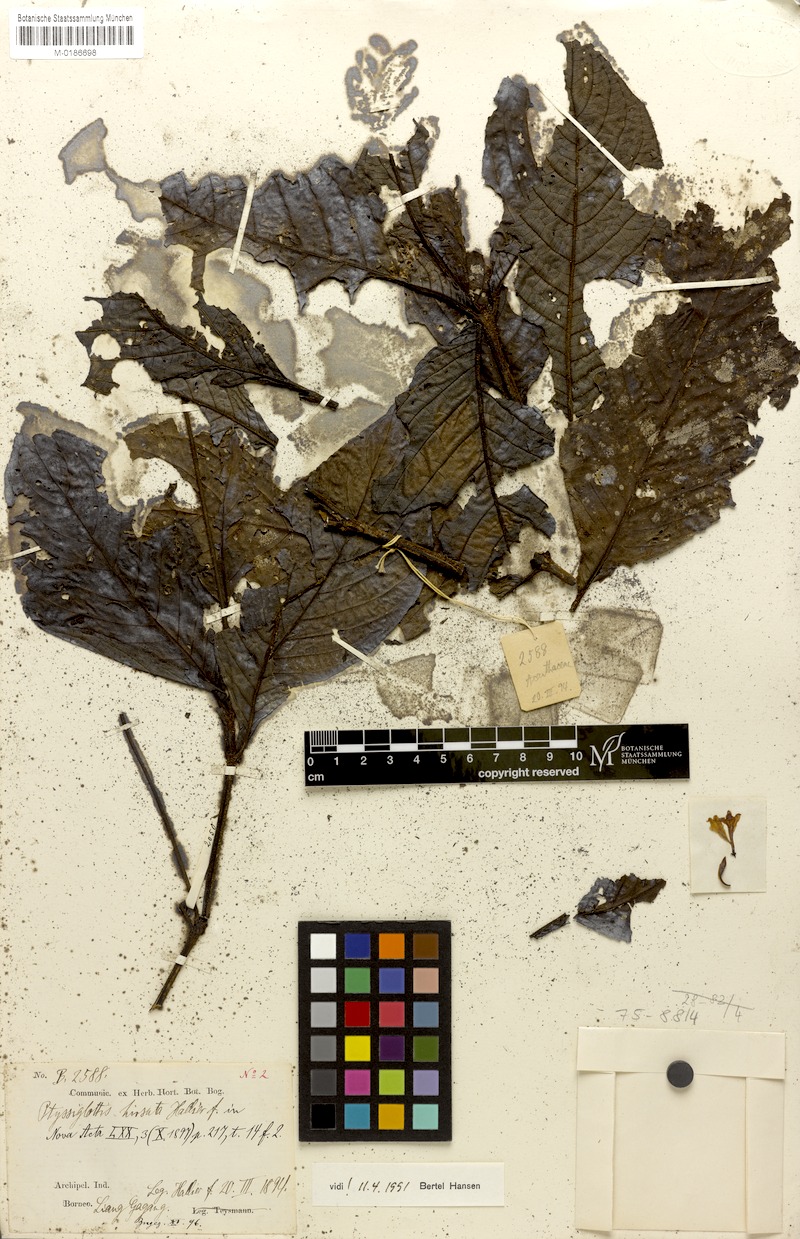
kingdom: Plantae
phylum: Tracheophyta
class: Magnoliopsida
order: Lamiales
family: Acanthaceae
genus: Ptyssiglottis
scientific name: Ptyssiglottis hirsuta
